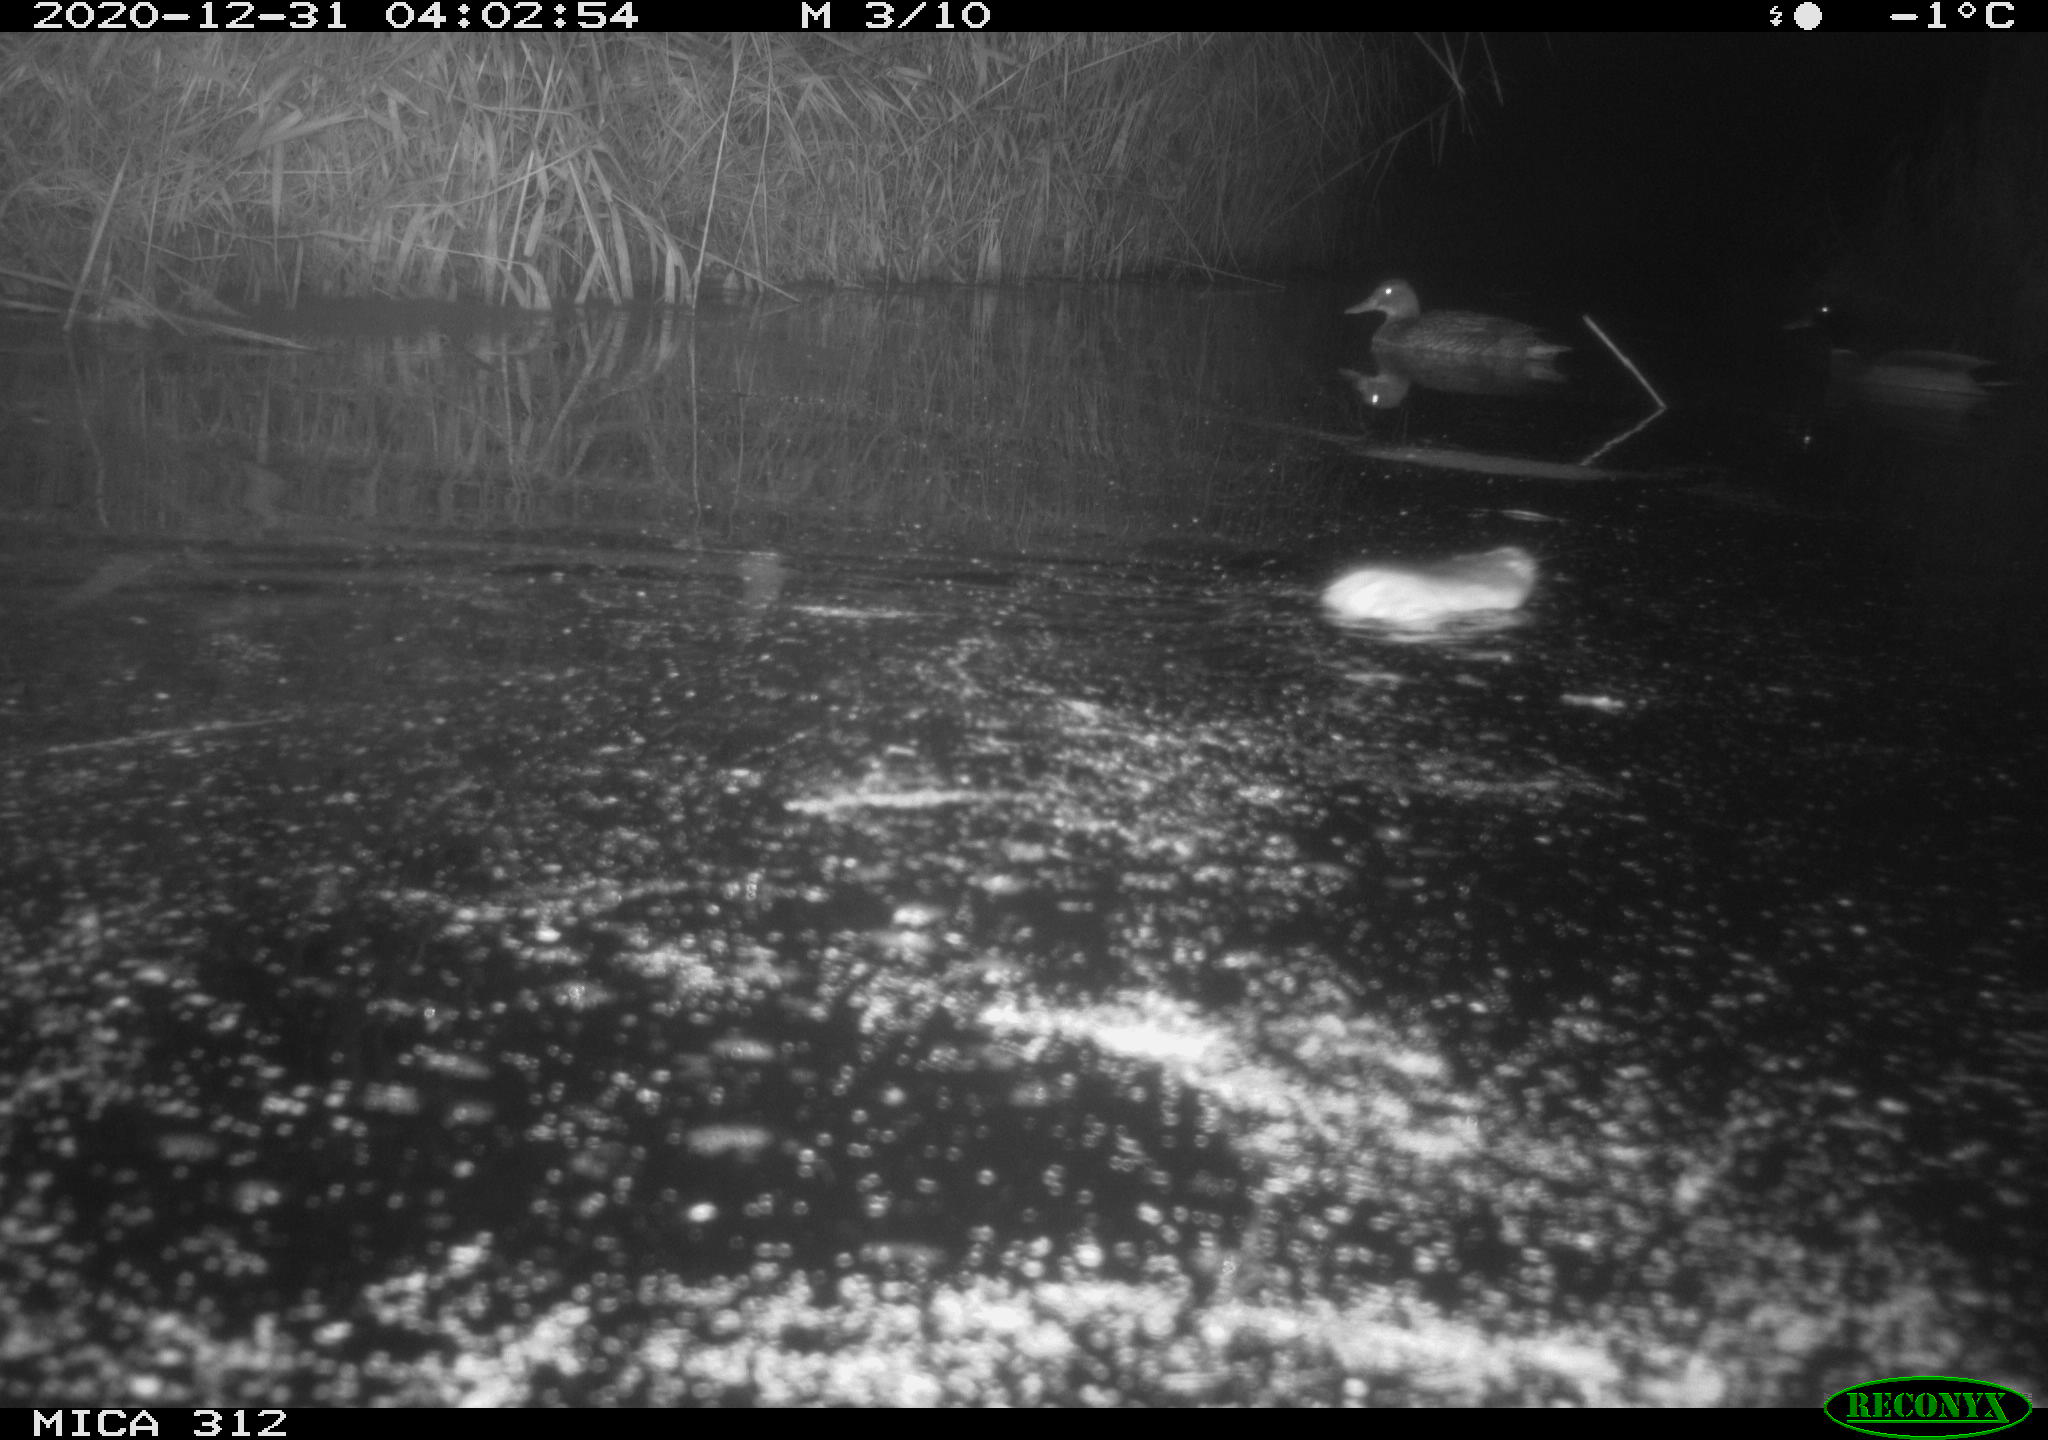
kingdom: Animalia
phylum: Chordata
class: Mammalia
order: Rodentia
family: Muridae
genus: Rattus
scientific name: Rattus norvegicus
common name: Brown rat
